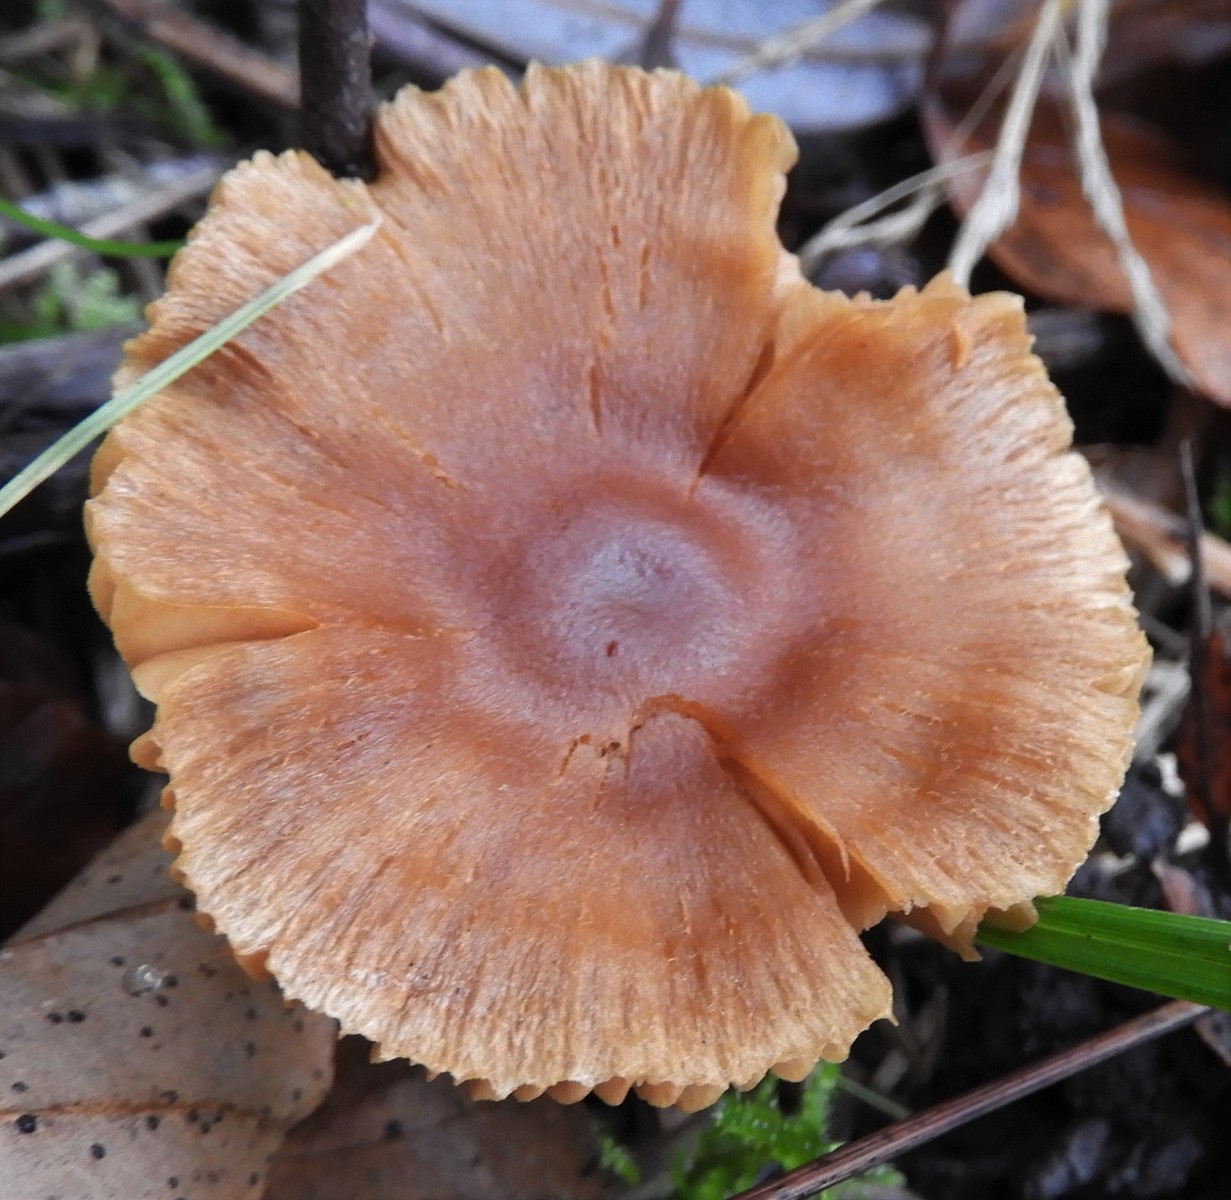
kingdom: Fungi
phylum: Basidiomycota
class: Agaricomycetes
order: Agaricales
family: Cortinariaceae
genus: Cortinarius
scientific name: Cortinarius
